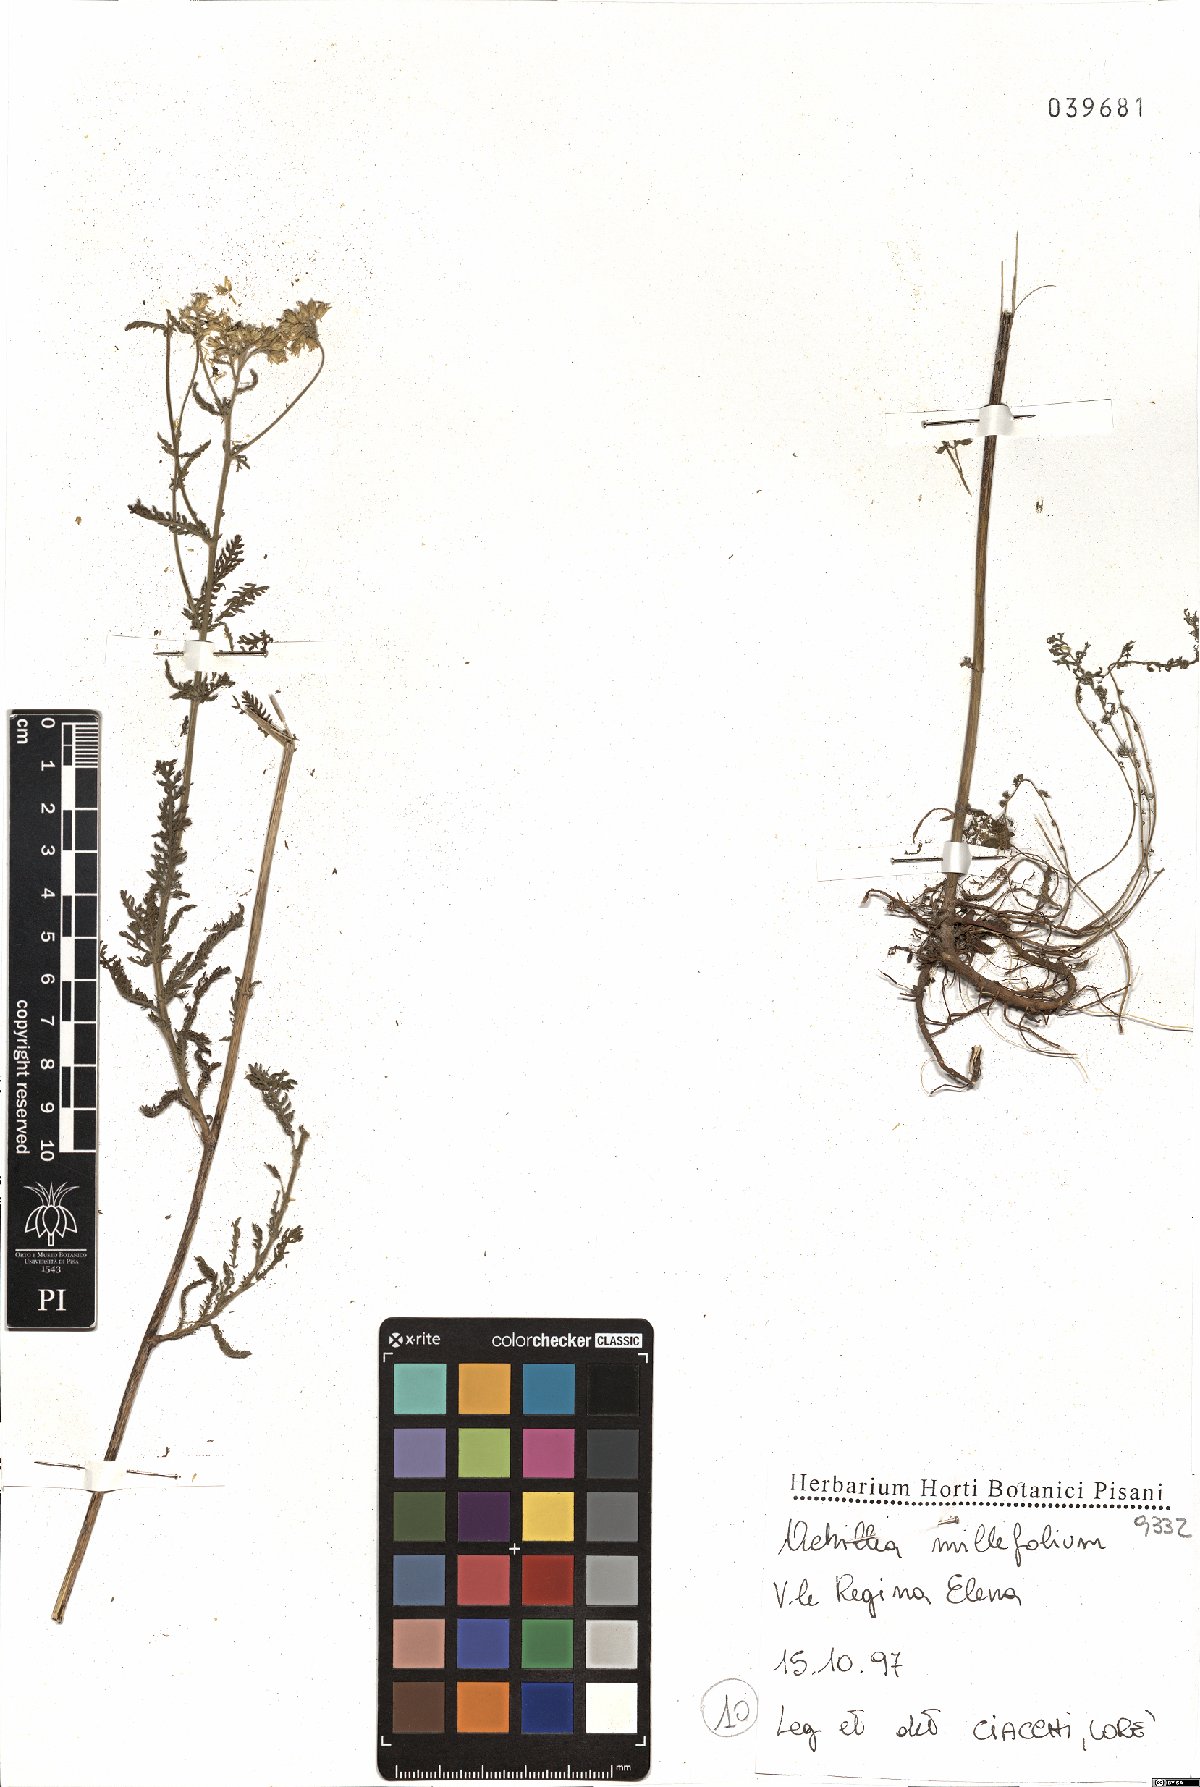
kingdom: Plantae
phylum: Tracheophyta
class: Magnoliopsida
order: Asterales
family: Asteraceae
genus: Achillea
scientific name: Achillea millefolium
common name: Yarrow
